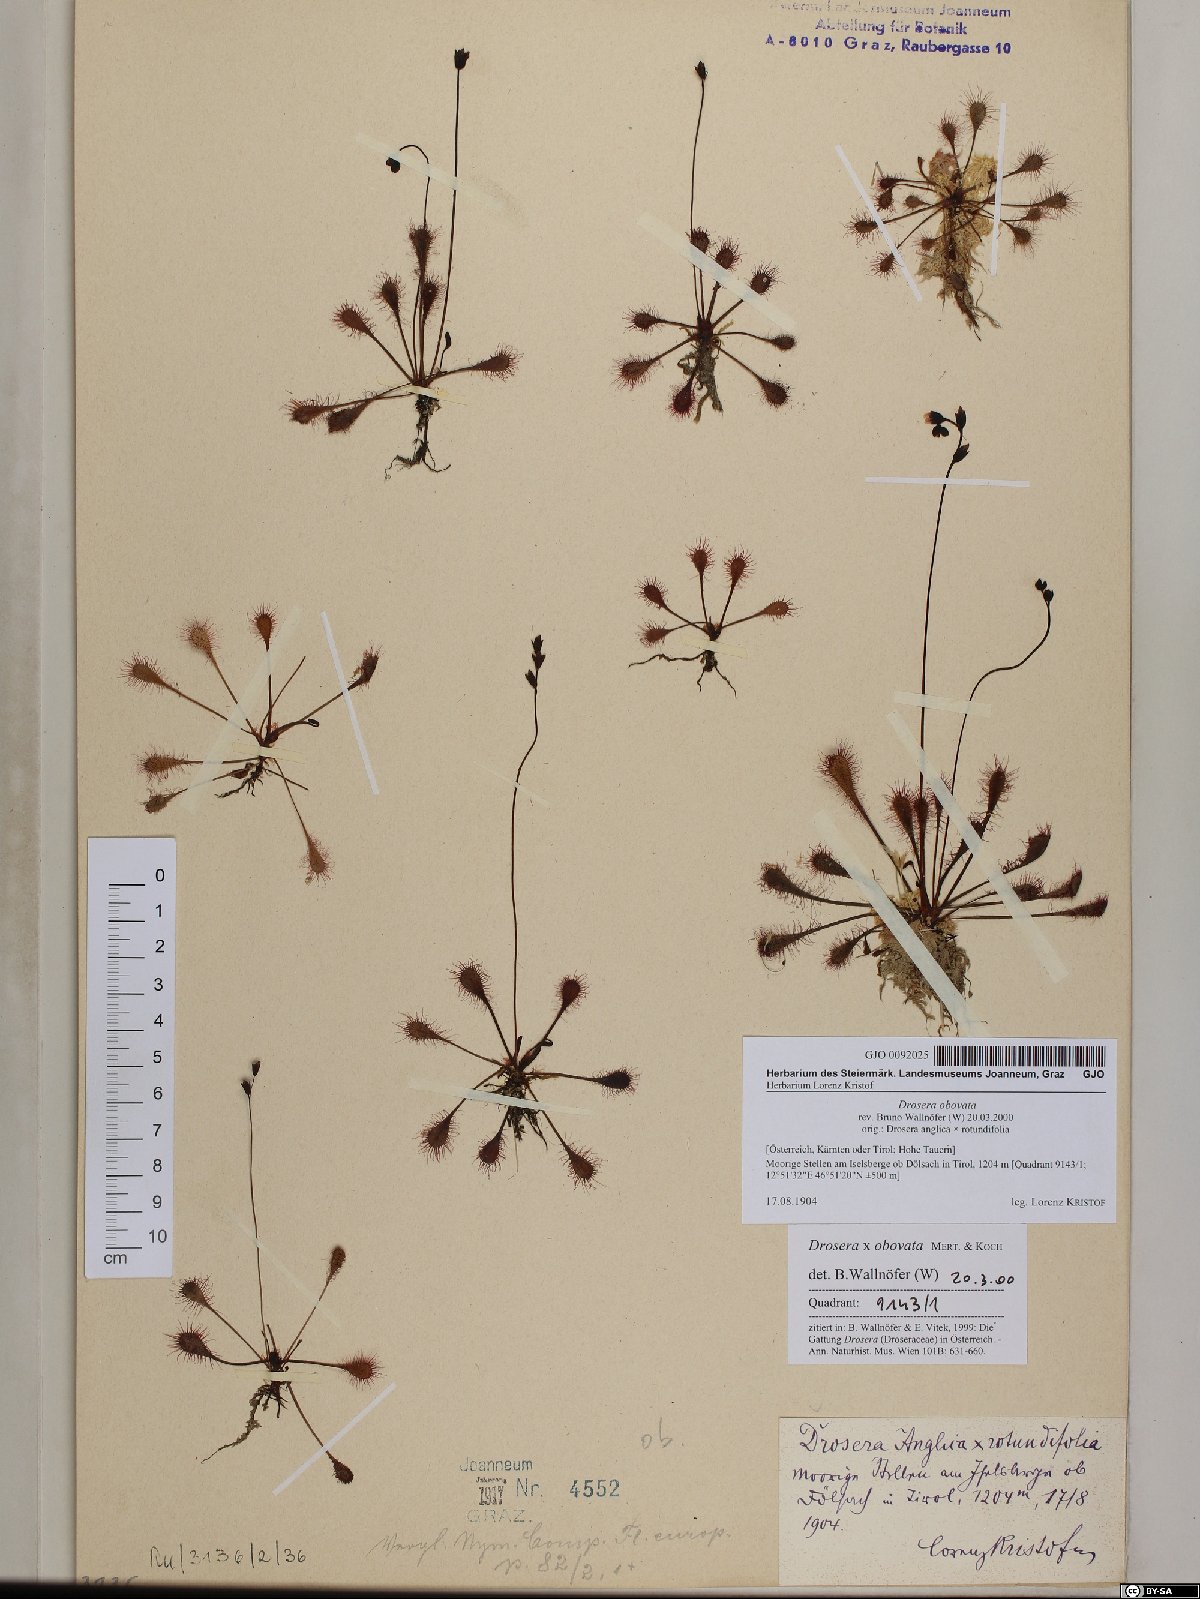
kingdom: Plantae
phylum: Tracheophyta
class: Magnoliopsida
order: Caryophyllales
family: Droseraceae
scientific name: Droseraceae
